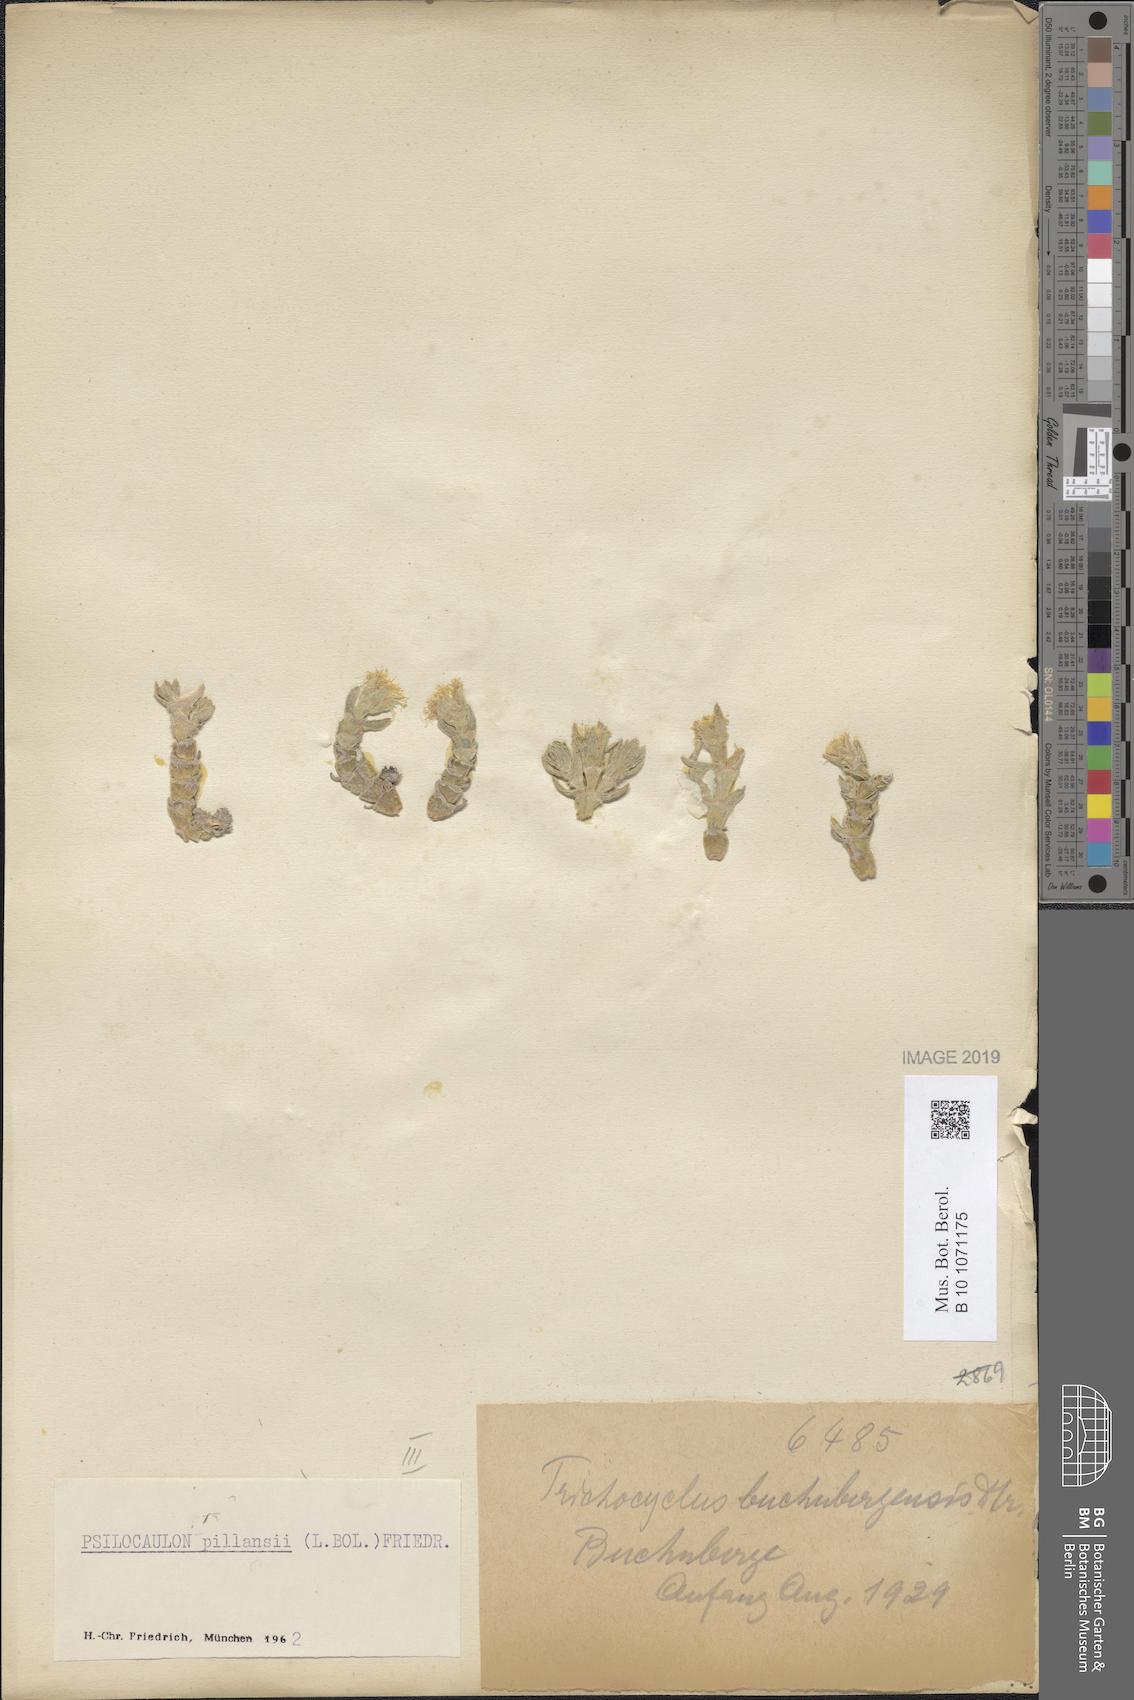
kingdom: Plantae
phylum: Tracheophyta
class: Magnoliopsida
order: Caryophyllales
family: Aizoaceae
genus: Mesembryanthemum
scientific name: Mesembryanthemum tomentosum
